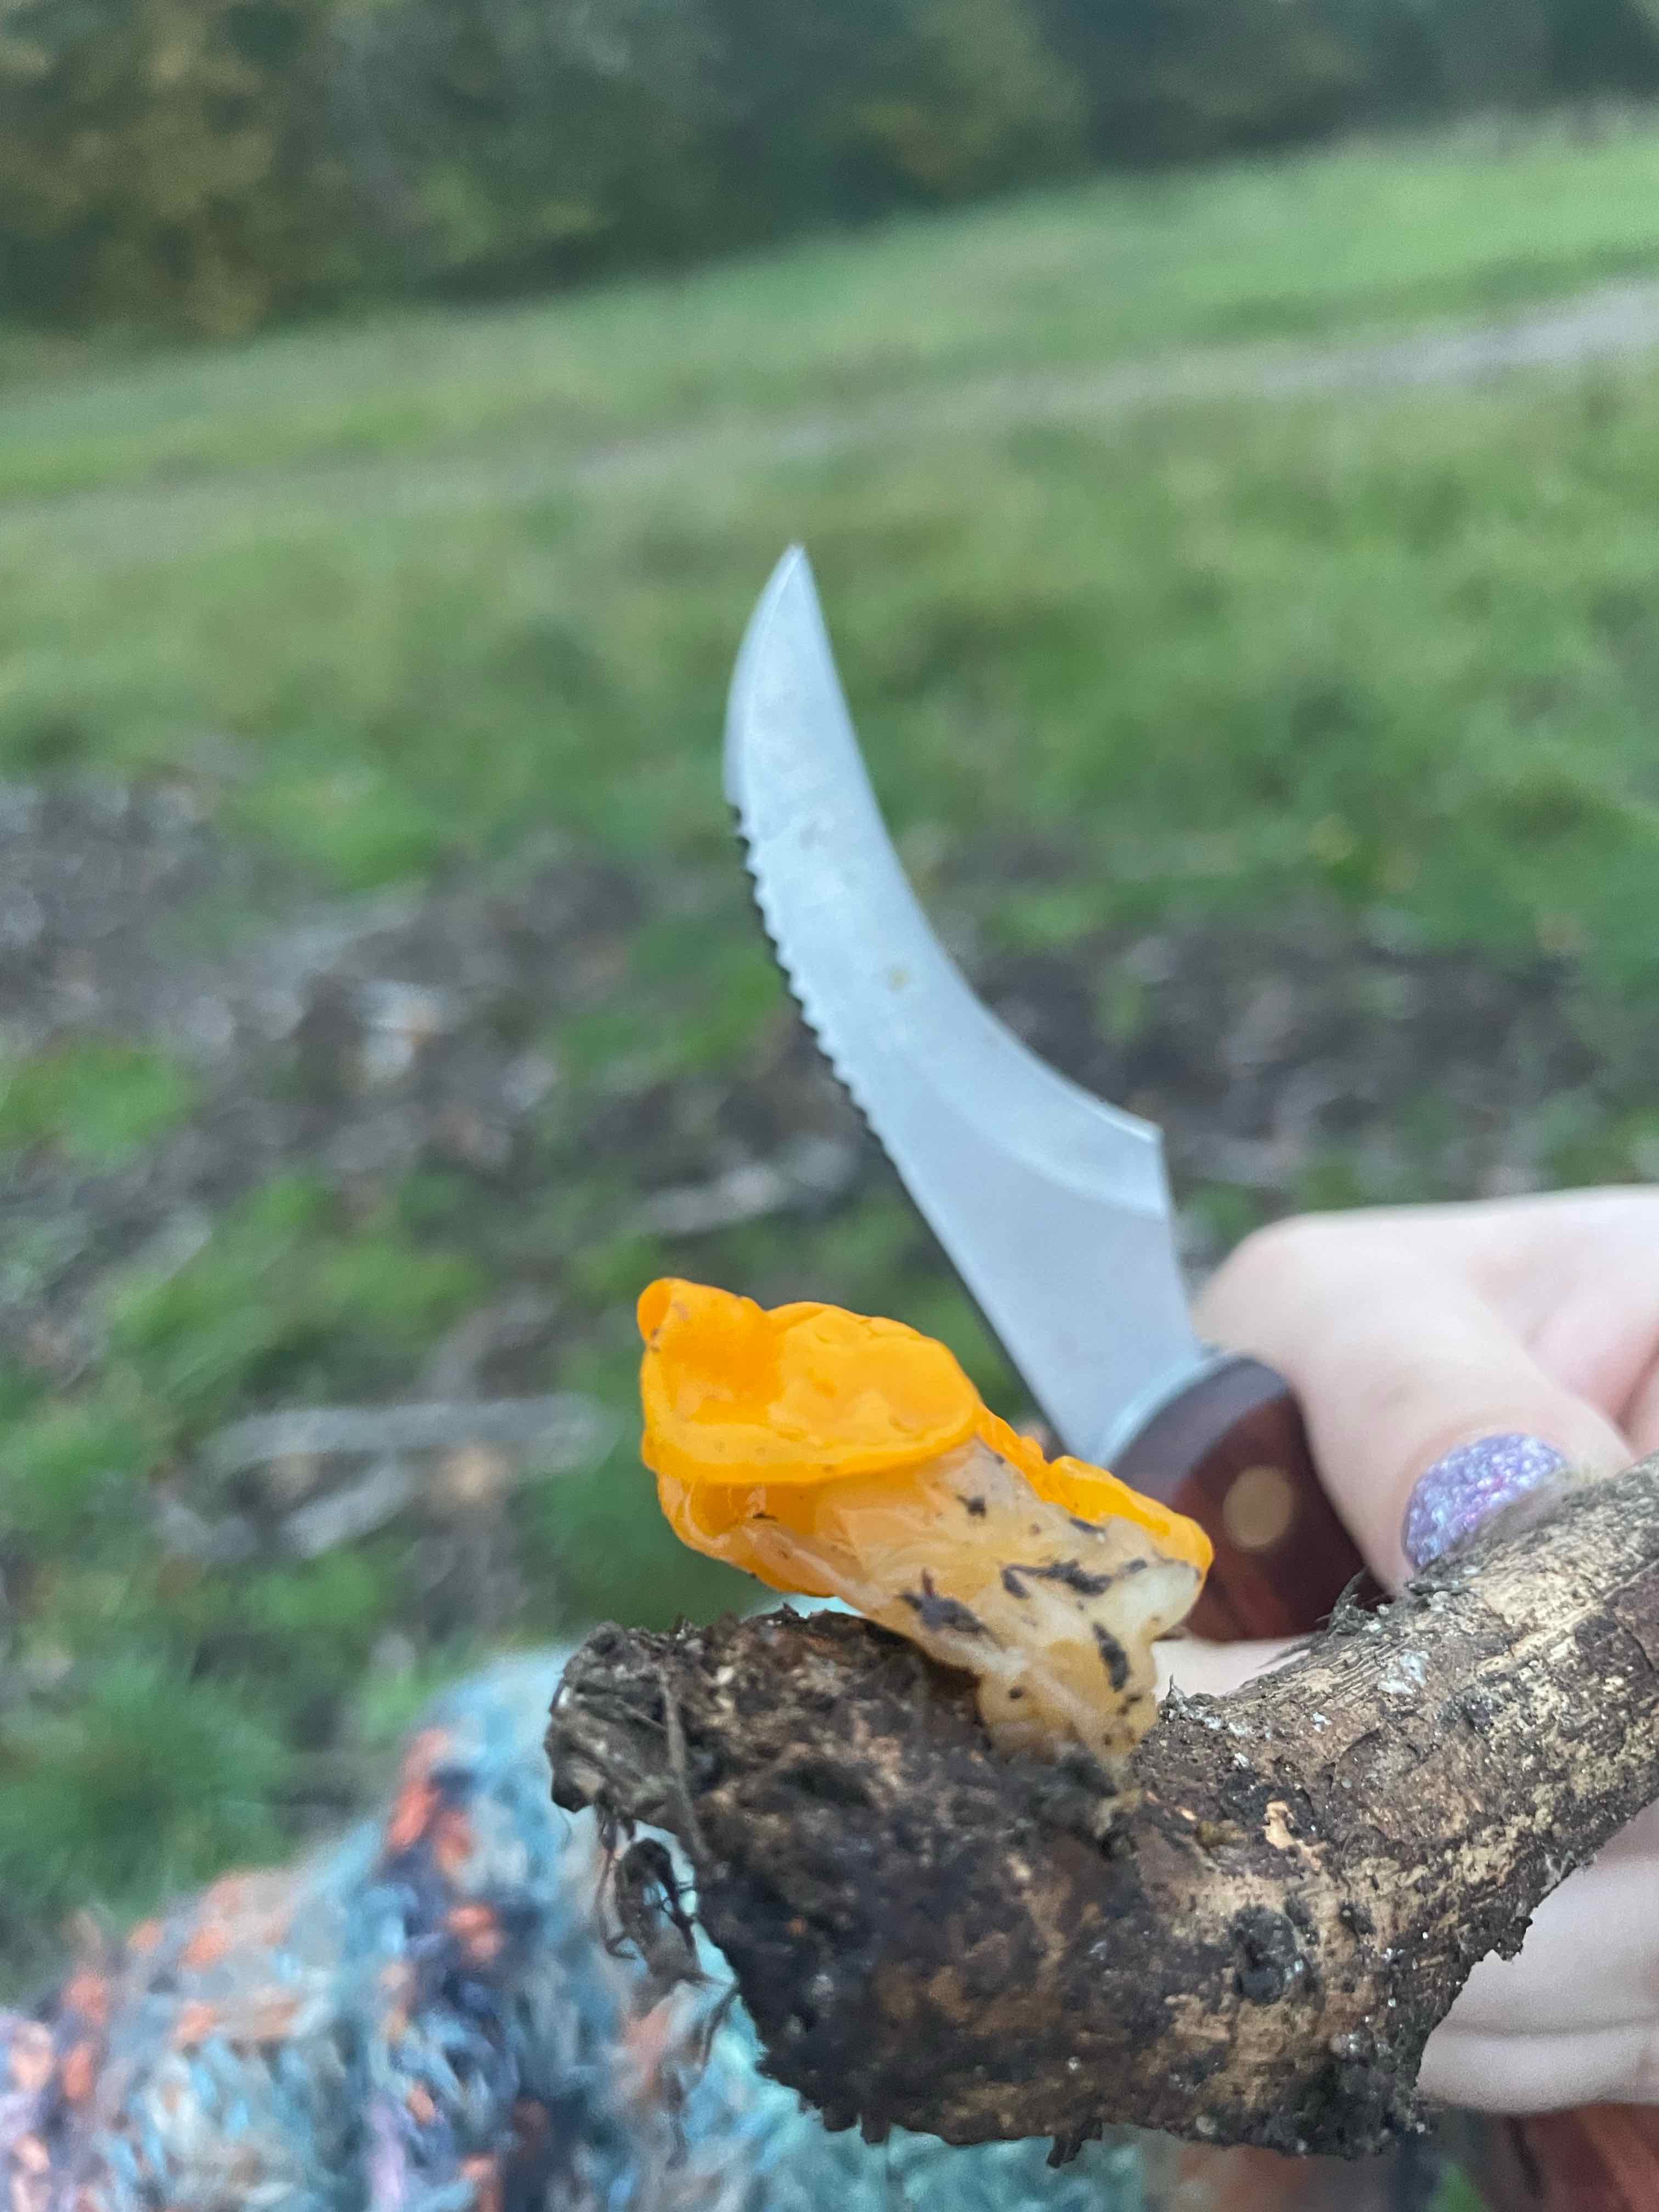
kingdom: Fungi
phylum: Basidiomycota
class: Tremellomycetes
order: Tremellales
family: Tremellaceae
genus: Tremella
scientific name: Tremella mesenterica
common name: gul bævresvamp
